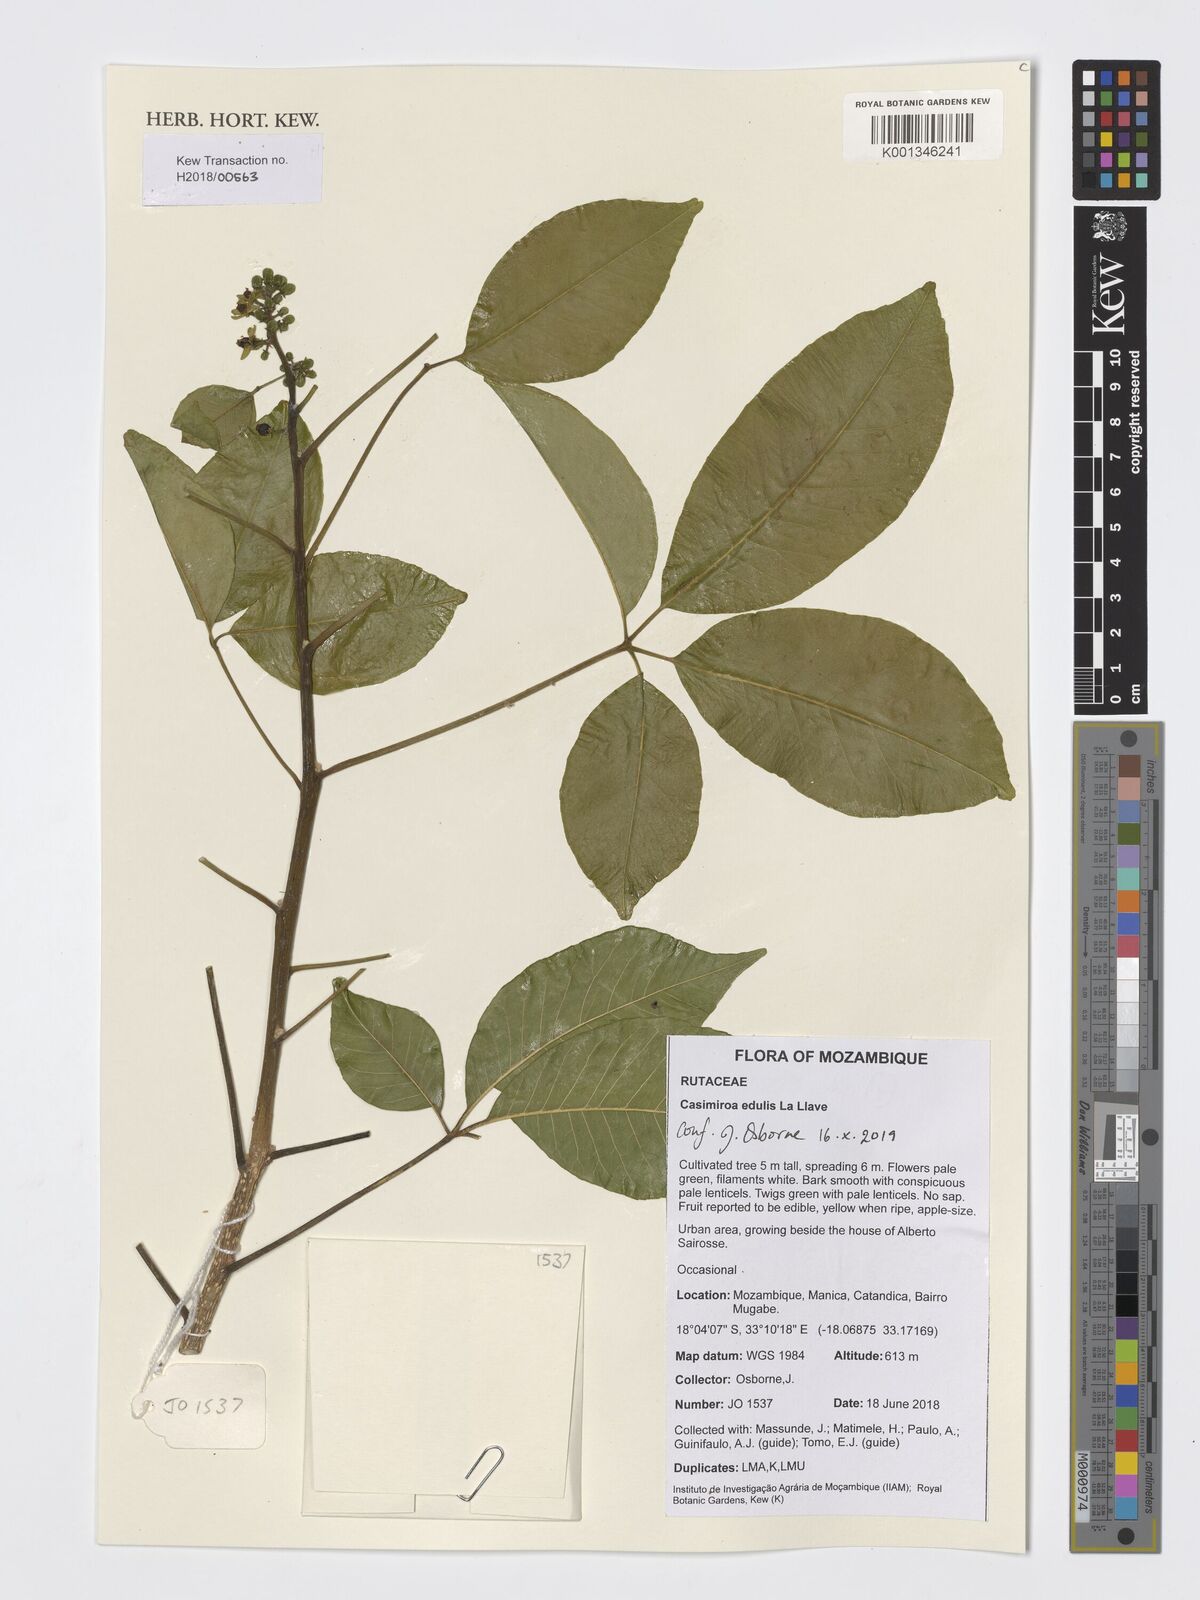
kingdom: Plantae
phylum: Tracheophyta
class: Magnoliopsida
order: Sapindales
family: Rutaceae
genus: Casimiroa
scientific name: Casimiroa edulis
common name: Mexican-apple
